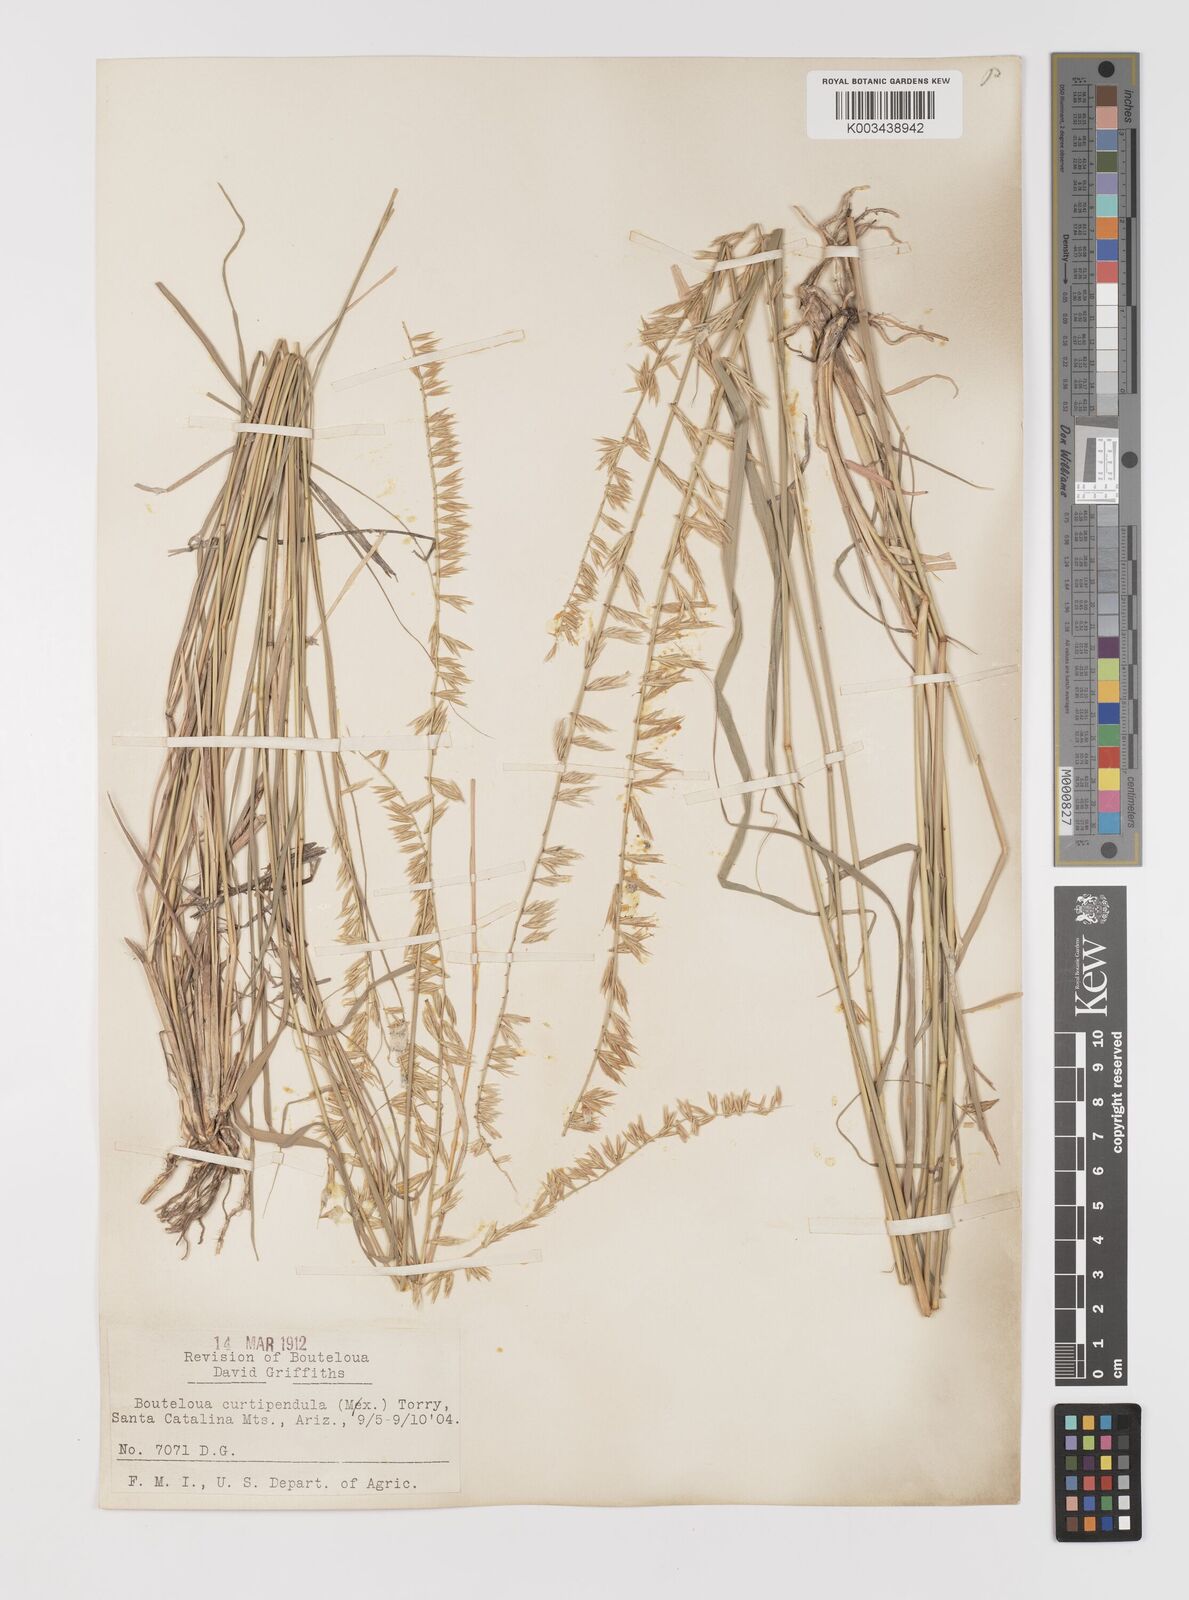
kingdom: Plantae
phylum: Tracheophyta
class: Liliopsida
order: Poales
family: Poaceae
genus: Bouteloua
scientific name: Bouteloua curtipendula
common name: Side-oats grama
